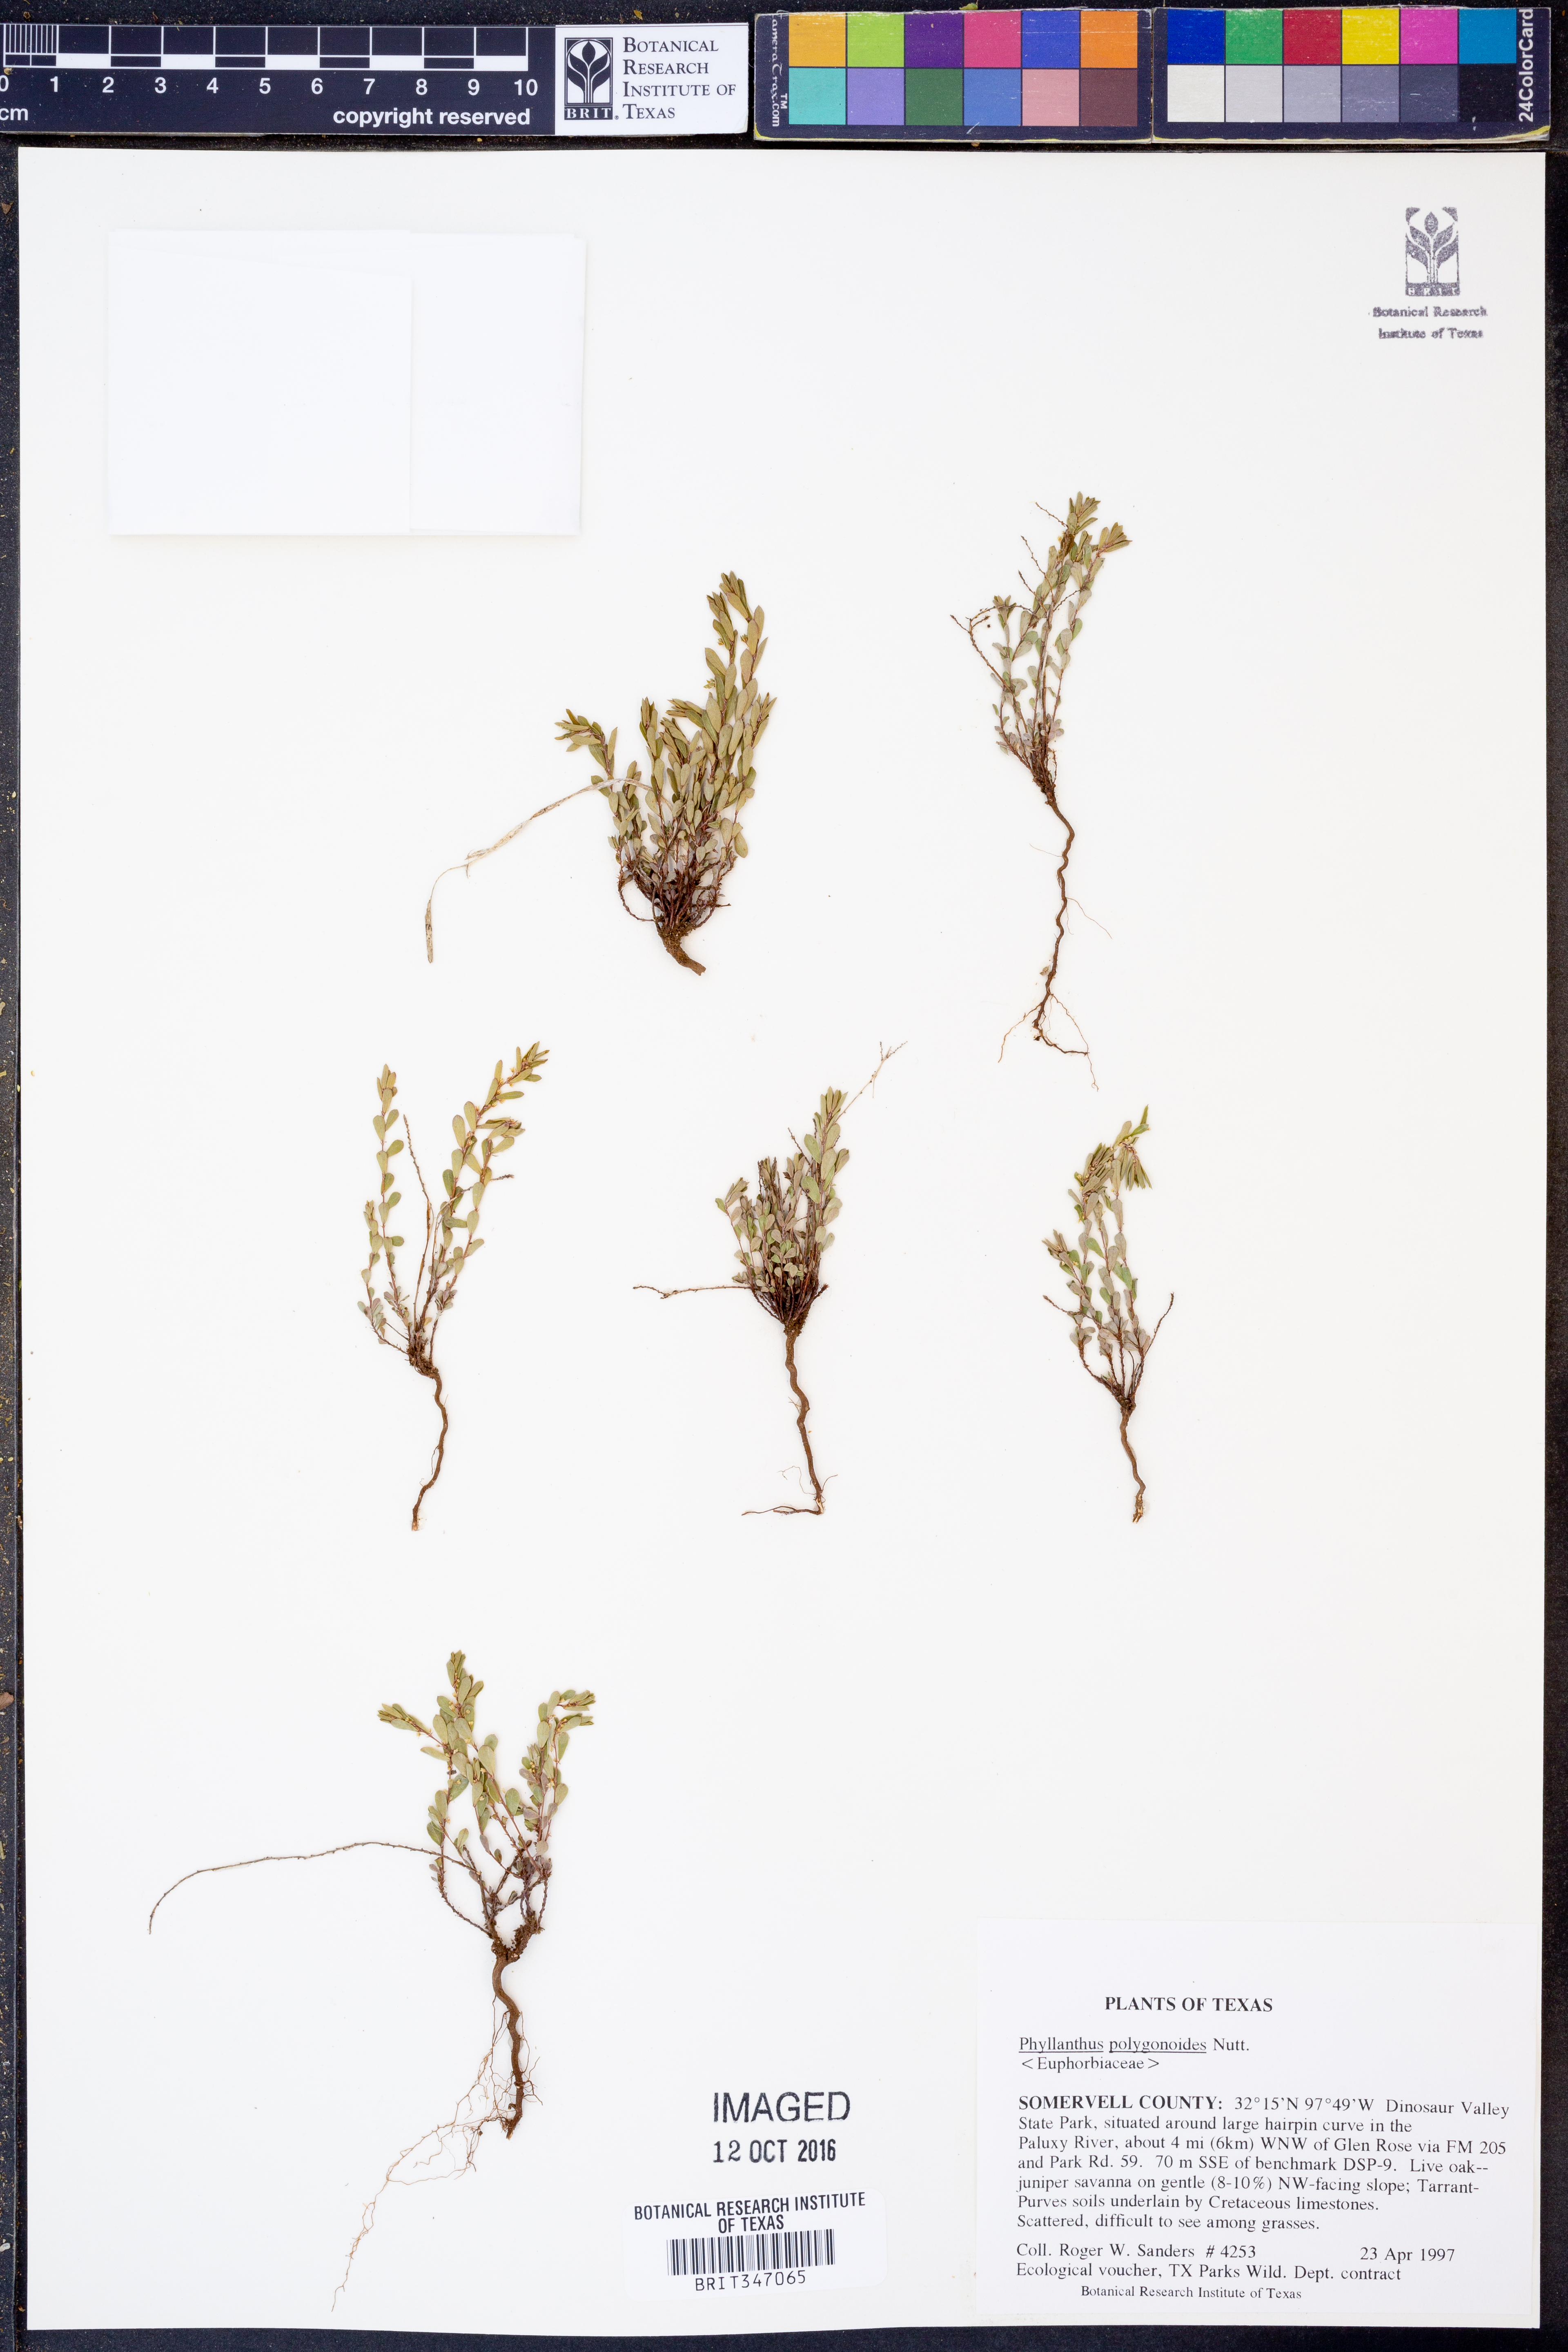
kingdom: Plantae
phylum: Tracheophyta
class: Magnoliopsida
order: Malpighiales
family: Phyllanthaceae
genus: Phyllanthus
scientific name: Phyllanthus polygonoides
